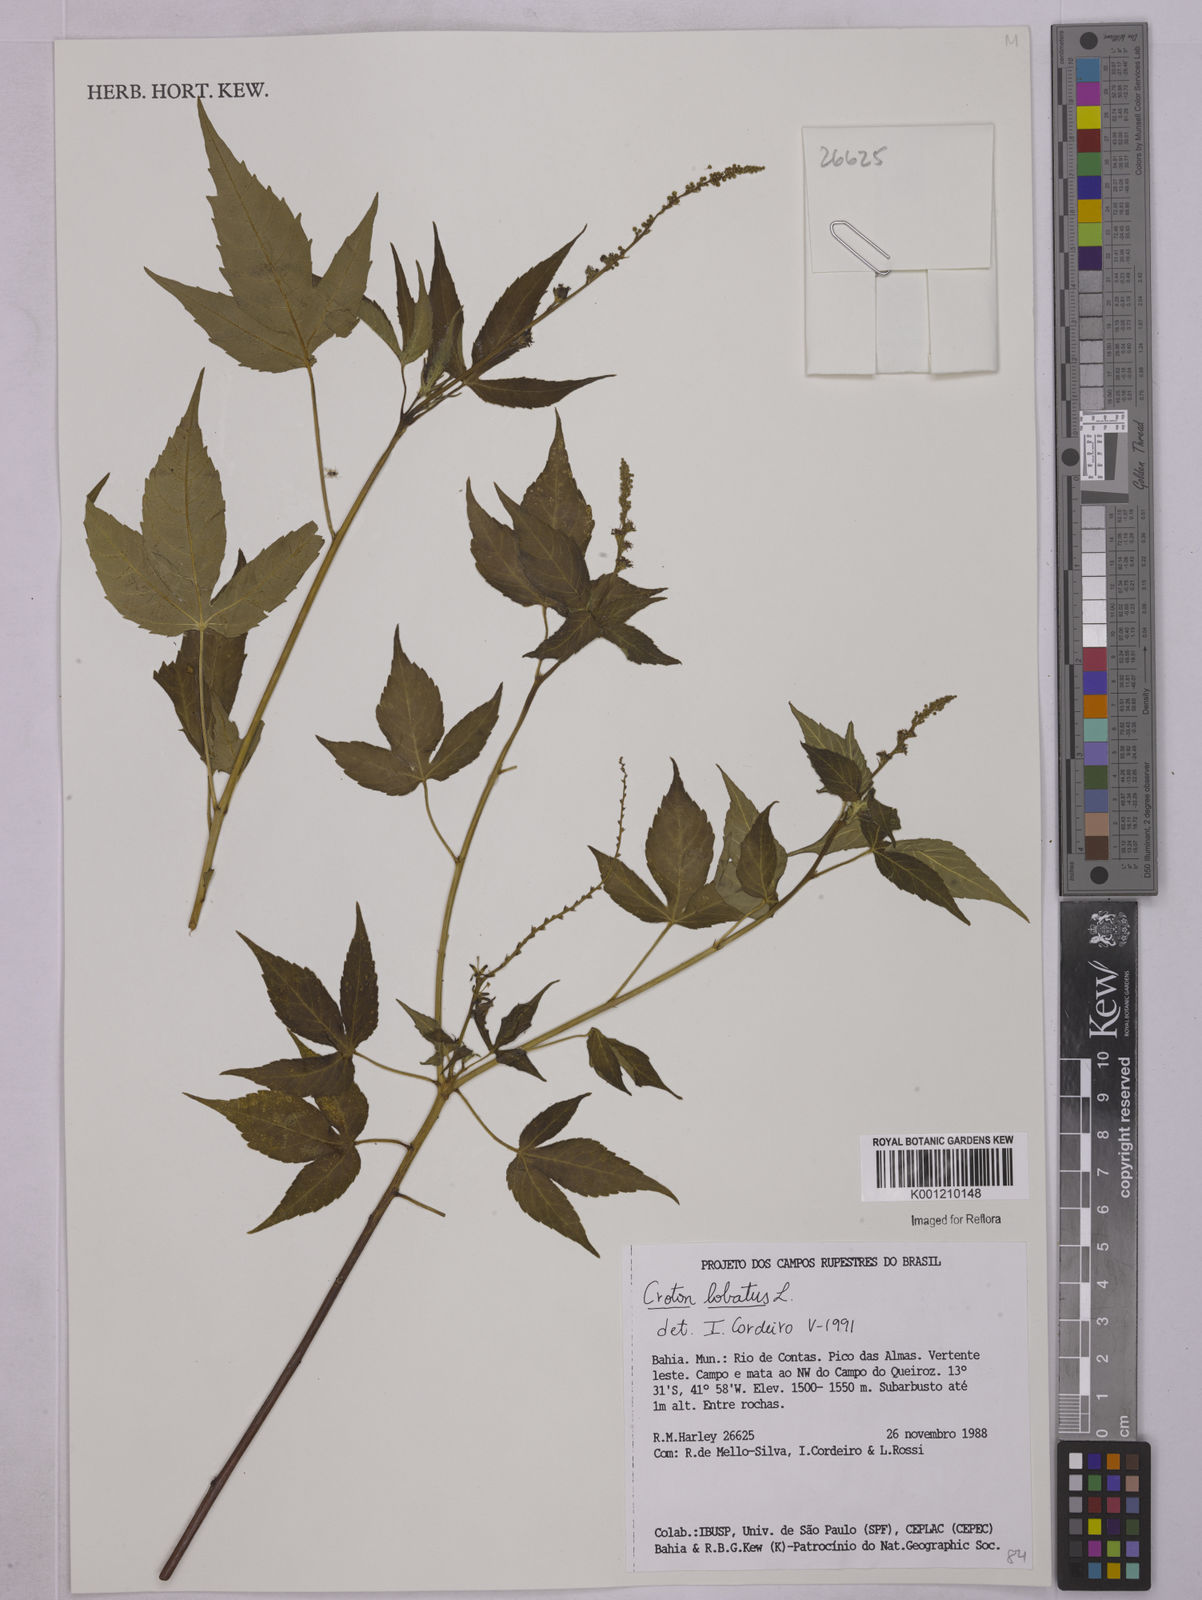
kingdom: Plantae
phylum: Tracheophyta
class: Magnoliopsida
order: Malpighiales
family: Euphorbiaceae
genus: Astraea
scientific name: Astraea lobata
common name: Lobed croton
